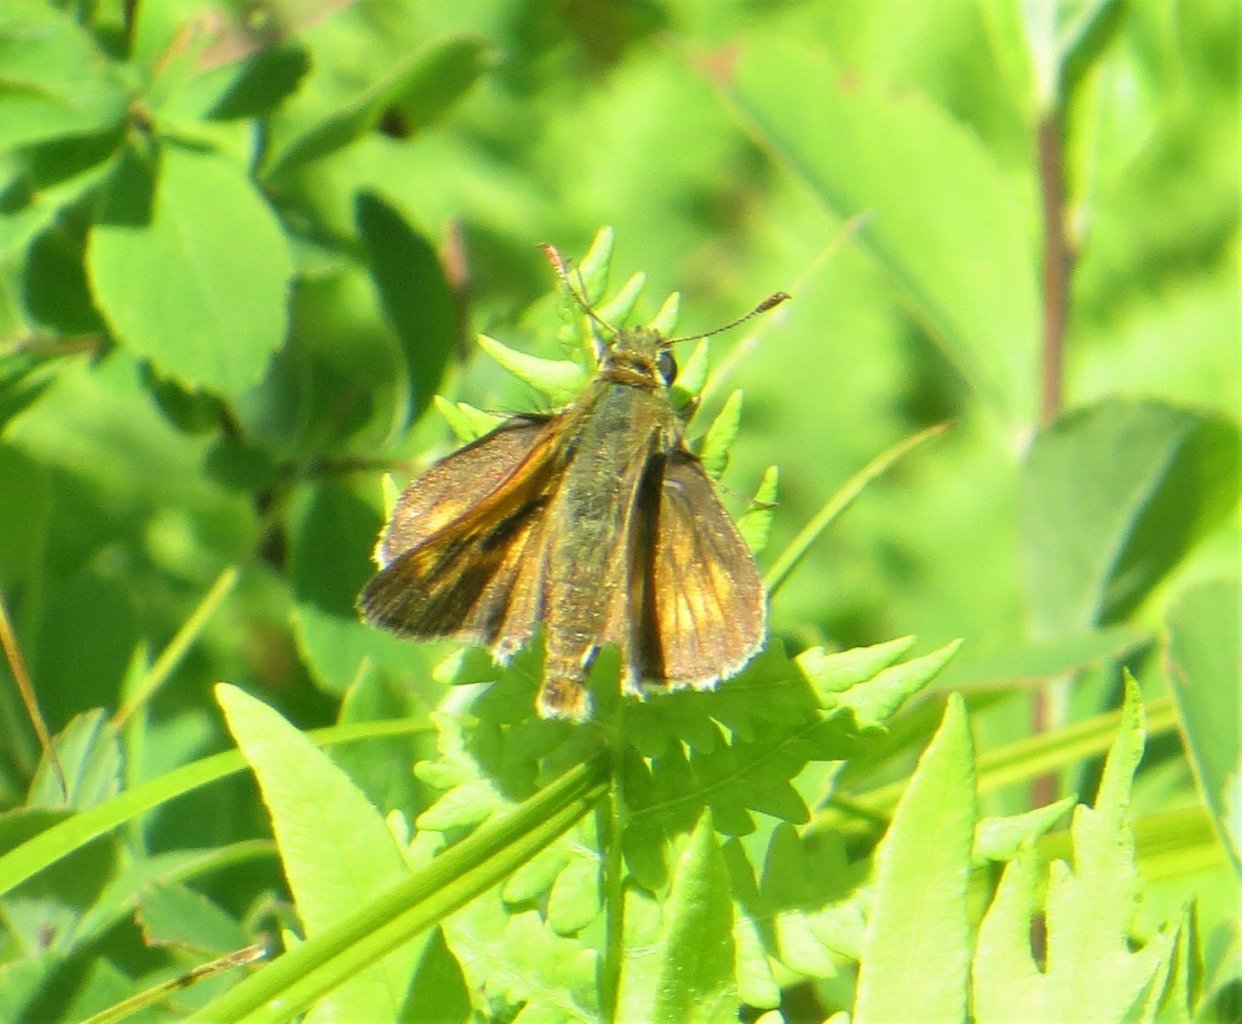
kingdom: Animalia
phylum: Arthropoda
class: Insecta
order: Lepidoptera
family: Hesperiidae
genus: Polites
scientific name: Polites themistocles
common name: Tawny-edged Skipper
